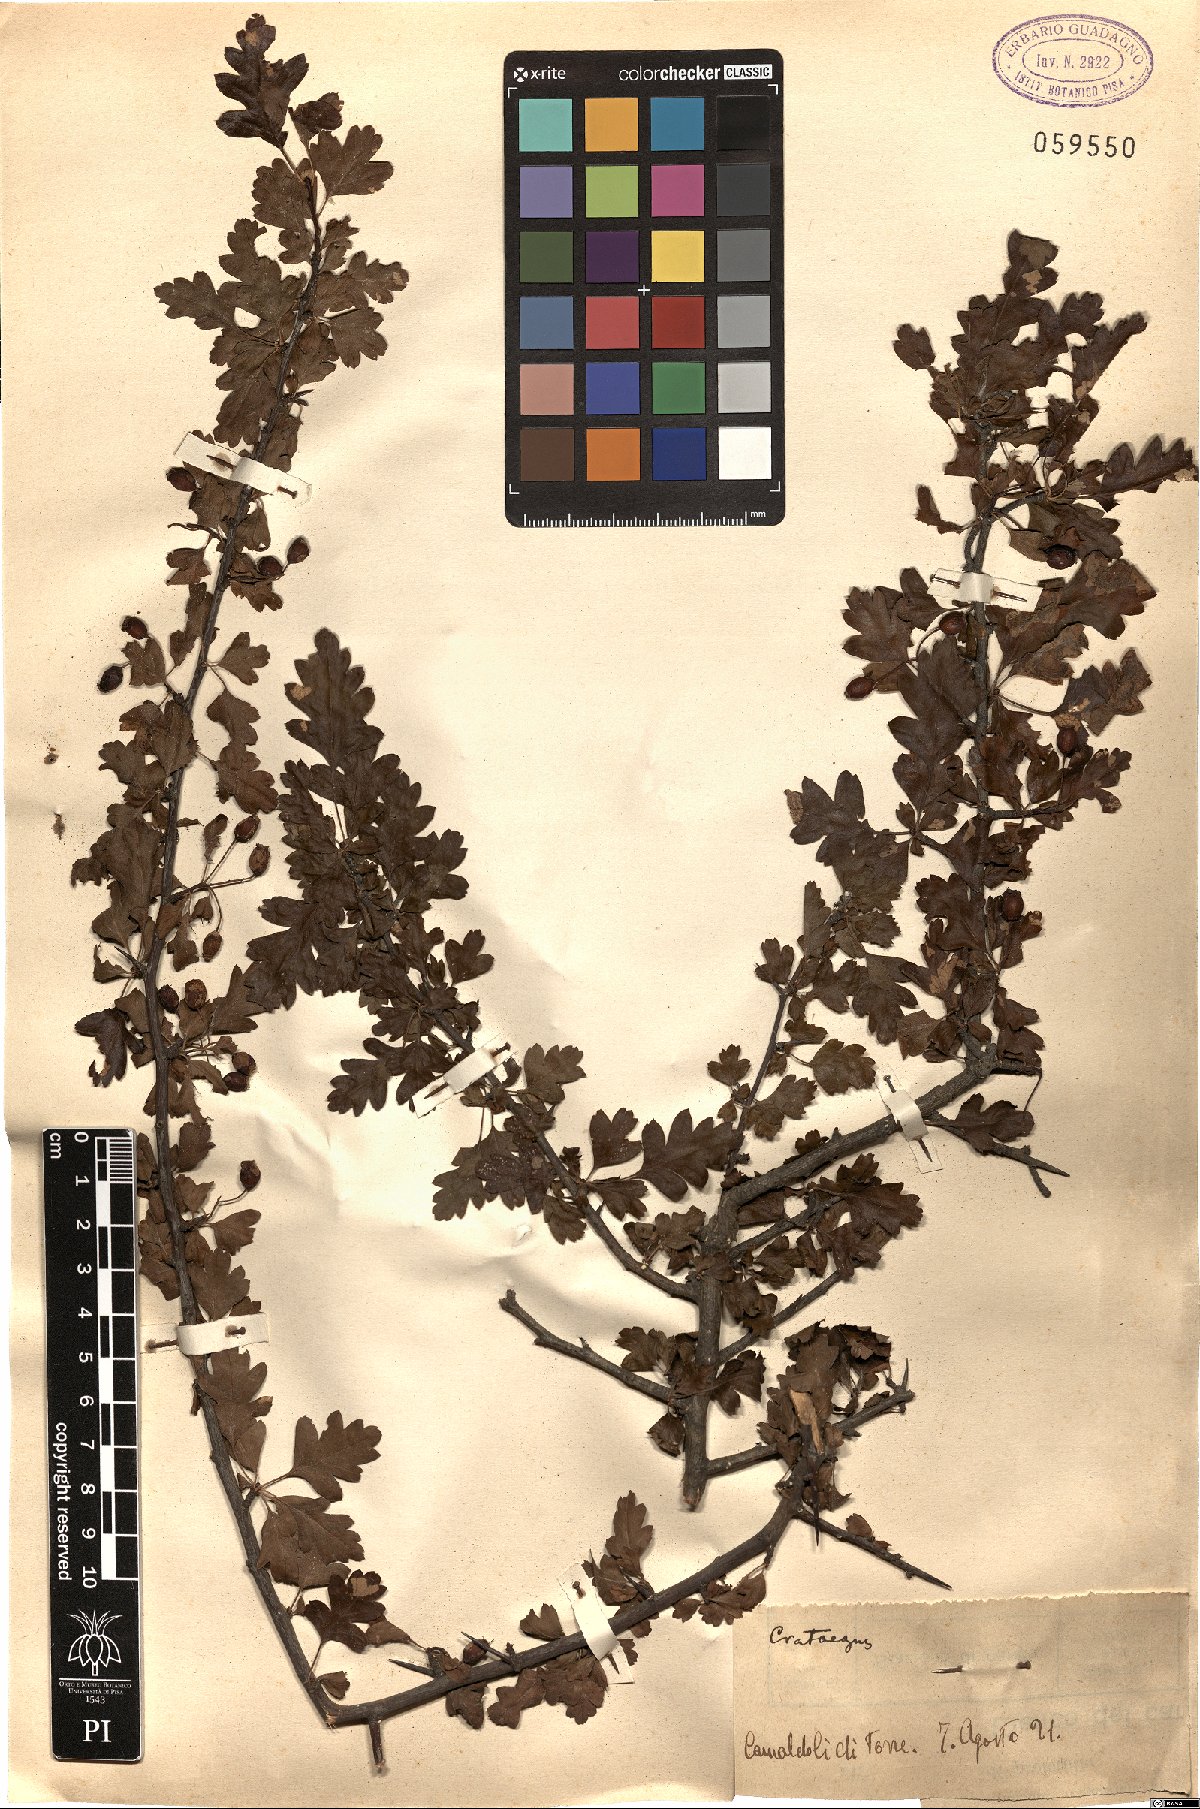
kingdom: Plantae
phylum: Tracheophyta
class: Magnoliopsida
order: Rosales
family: Rosaceae
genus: Crataegus
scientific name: Crataegus monogyna
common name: Hawthorn
